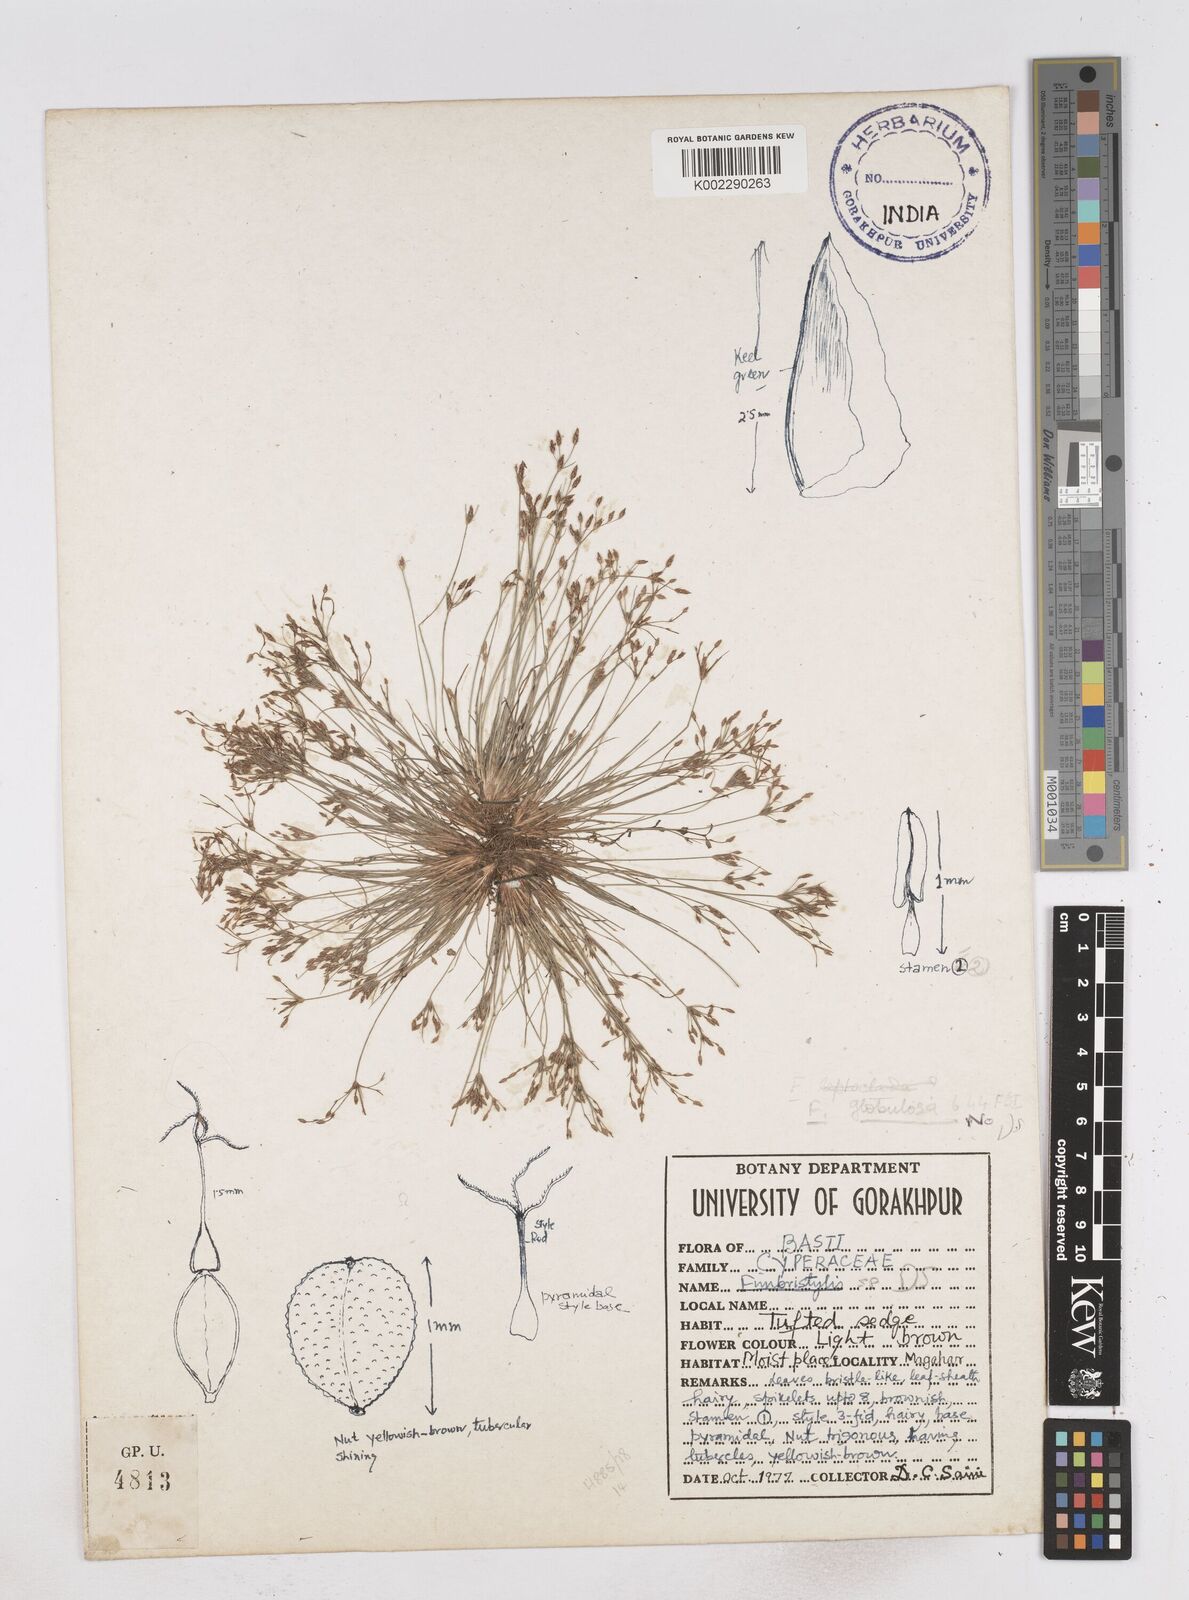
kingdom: Plantae
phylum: Tracheophyta
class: Liliopsida
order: Poales
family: Cyperaceae
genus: Fimbristylis
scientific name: Fimbristylis
